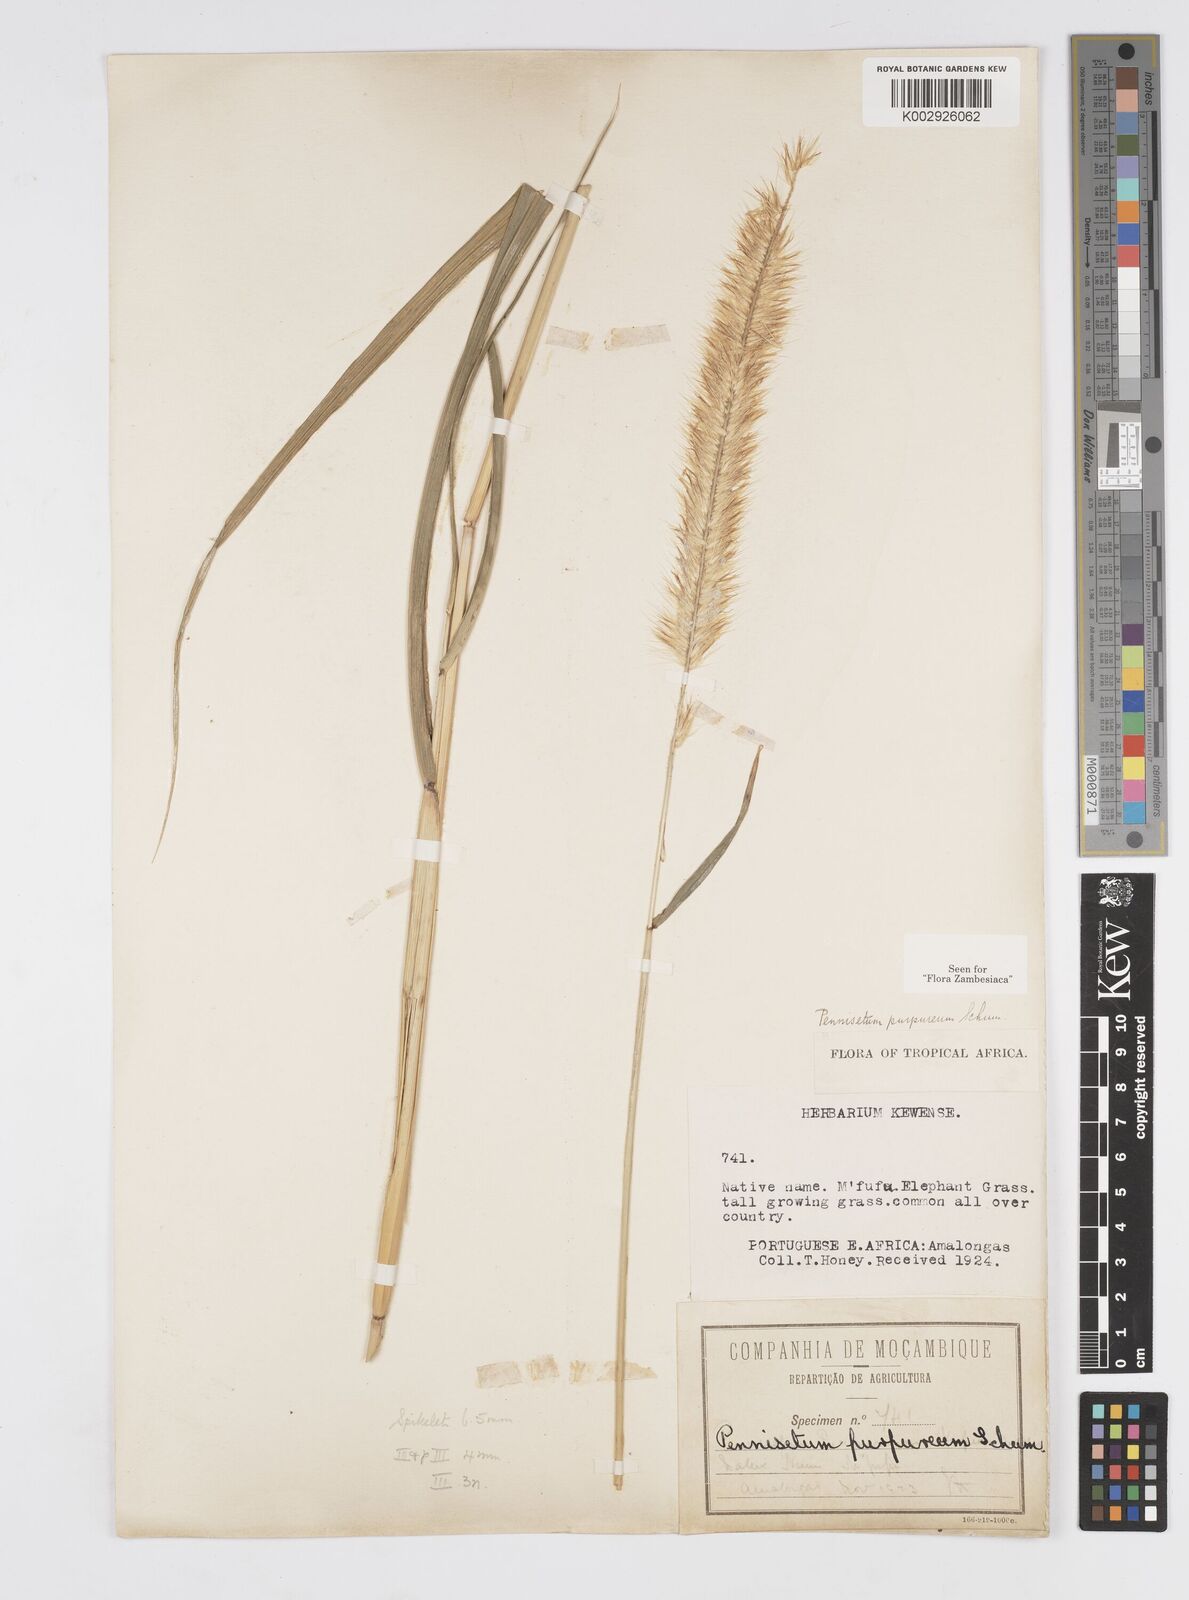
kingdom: Plantae
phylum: Tracheophyta
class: Liliopsida
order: Poales
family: Poaceae
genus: Cenchrus
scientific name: Cenchrus purpureus
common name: Elephant grass
